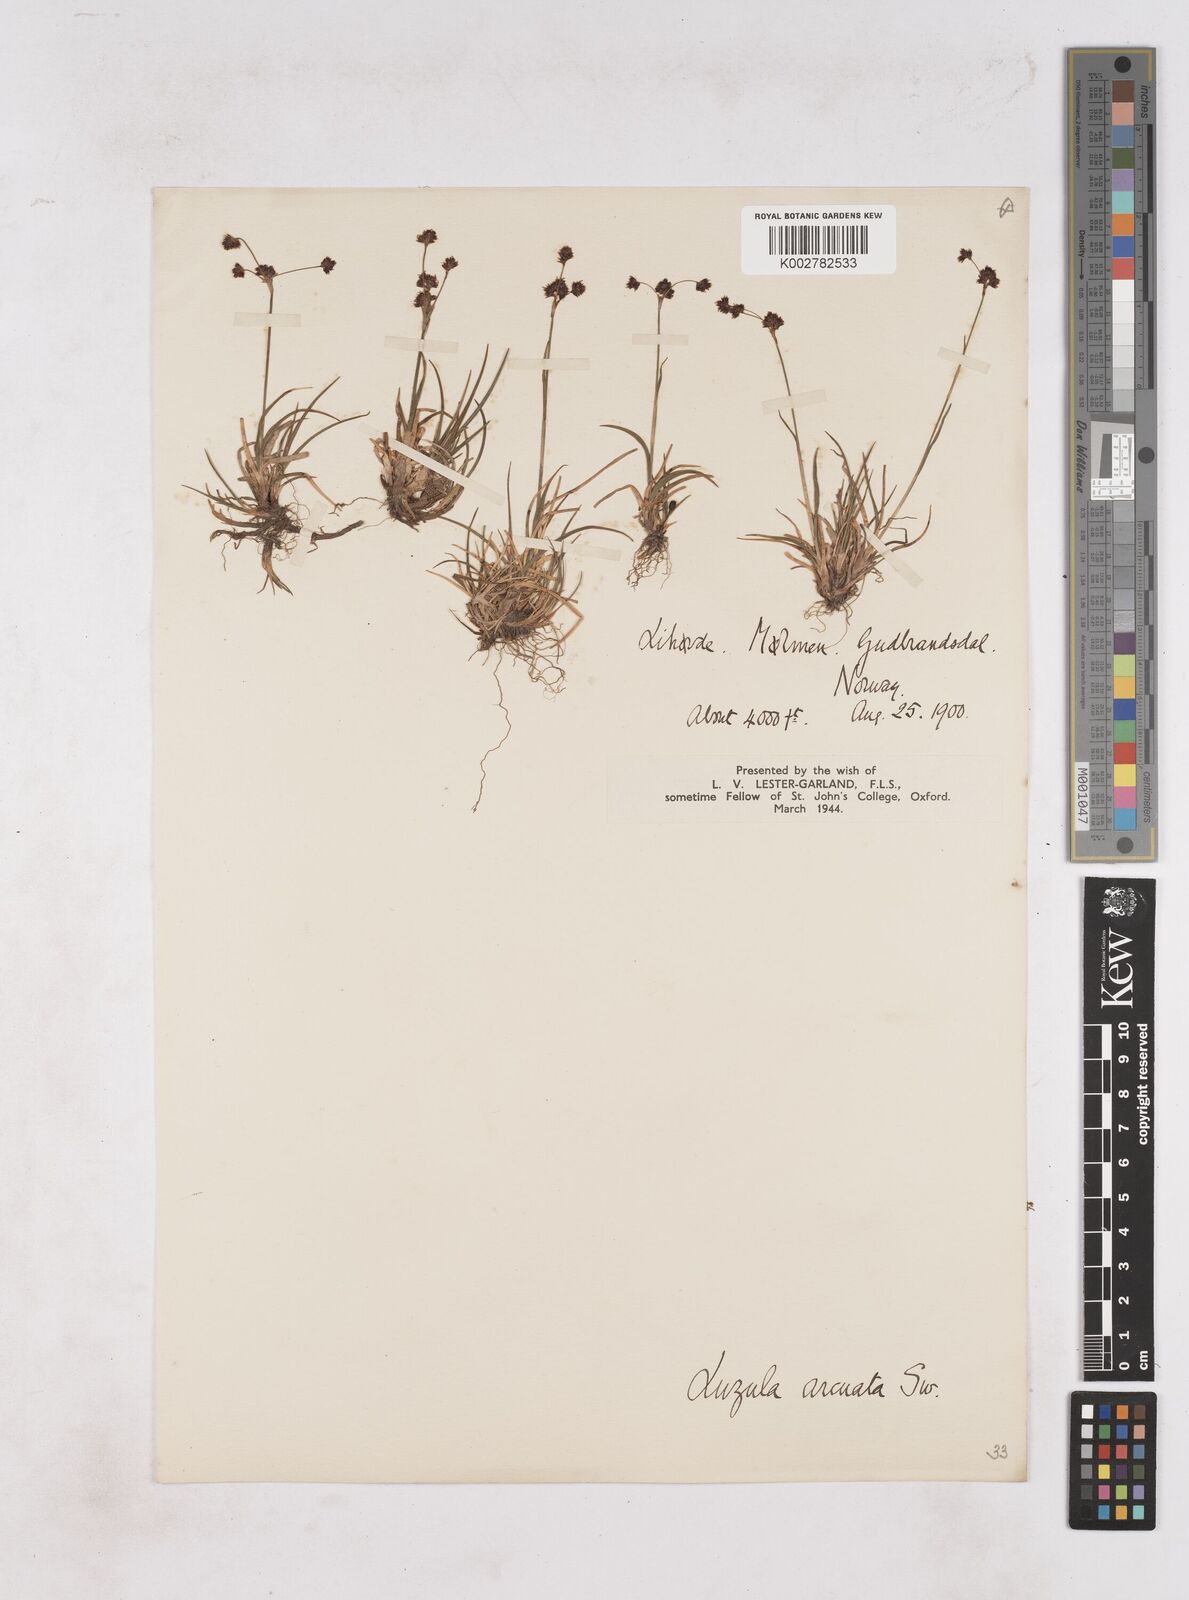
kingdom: Plantae
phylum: Tracheophyta
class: Liliopsida
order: Poales
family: Juncaceae
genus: Luzula
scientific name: Luzula arcuata
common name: Curved wood-rush
